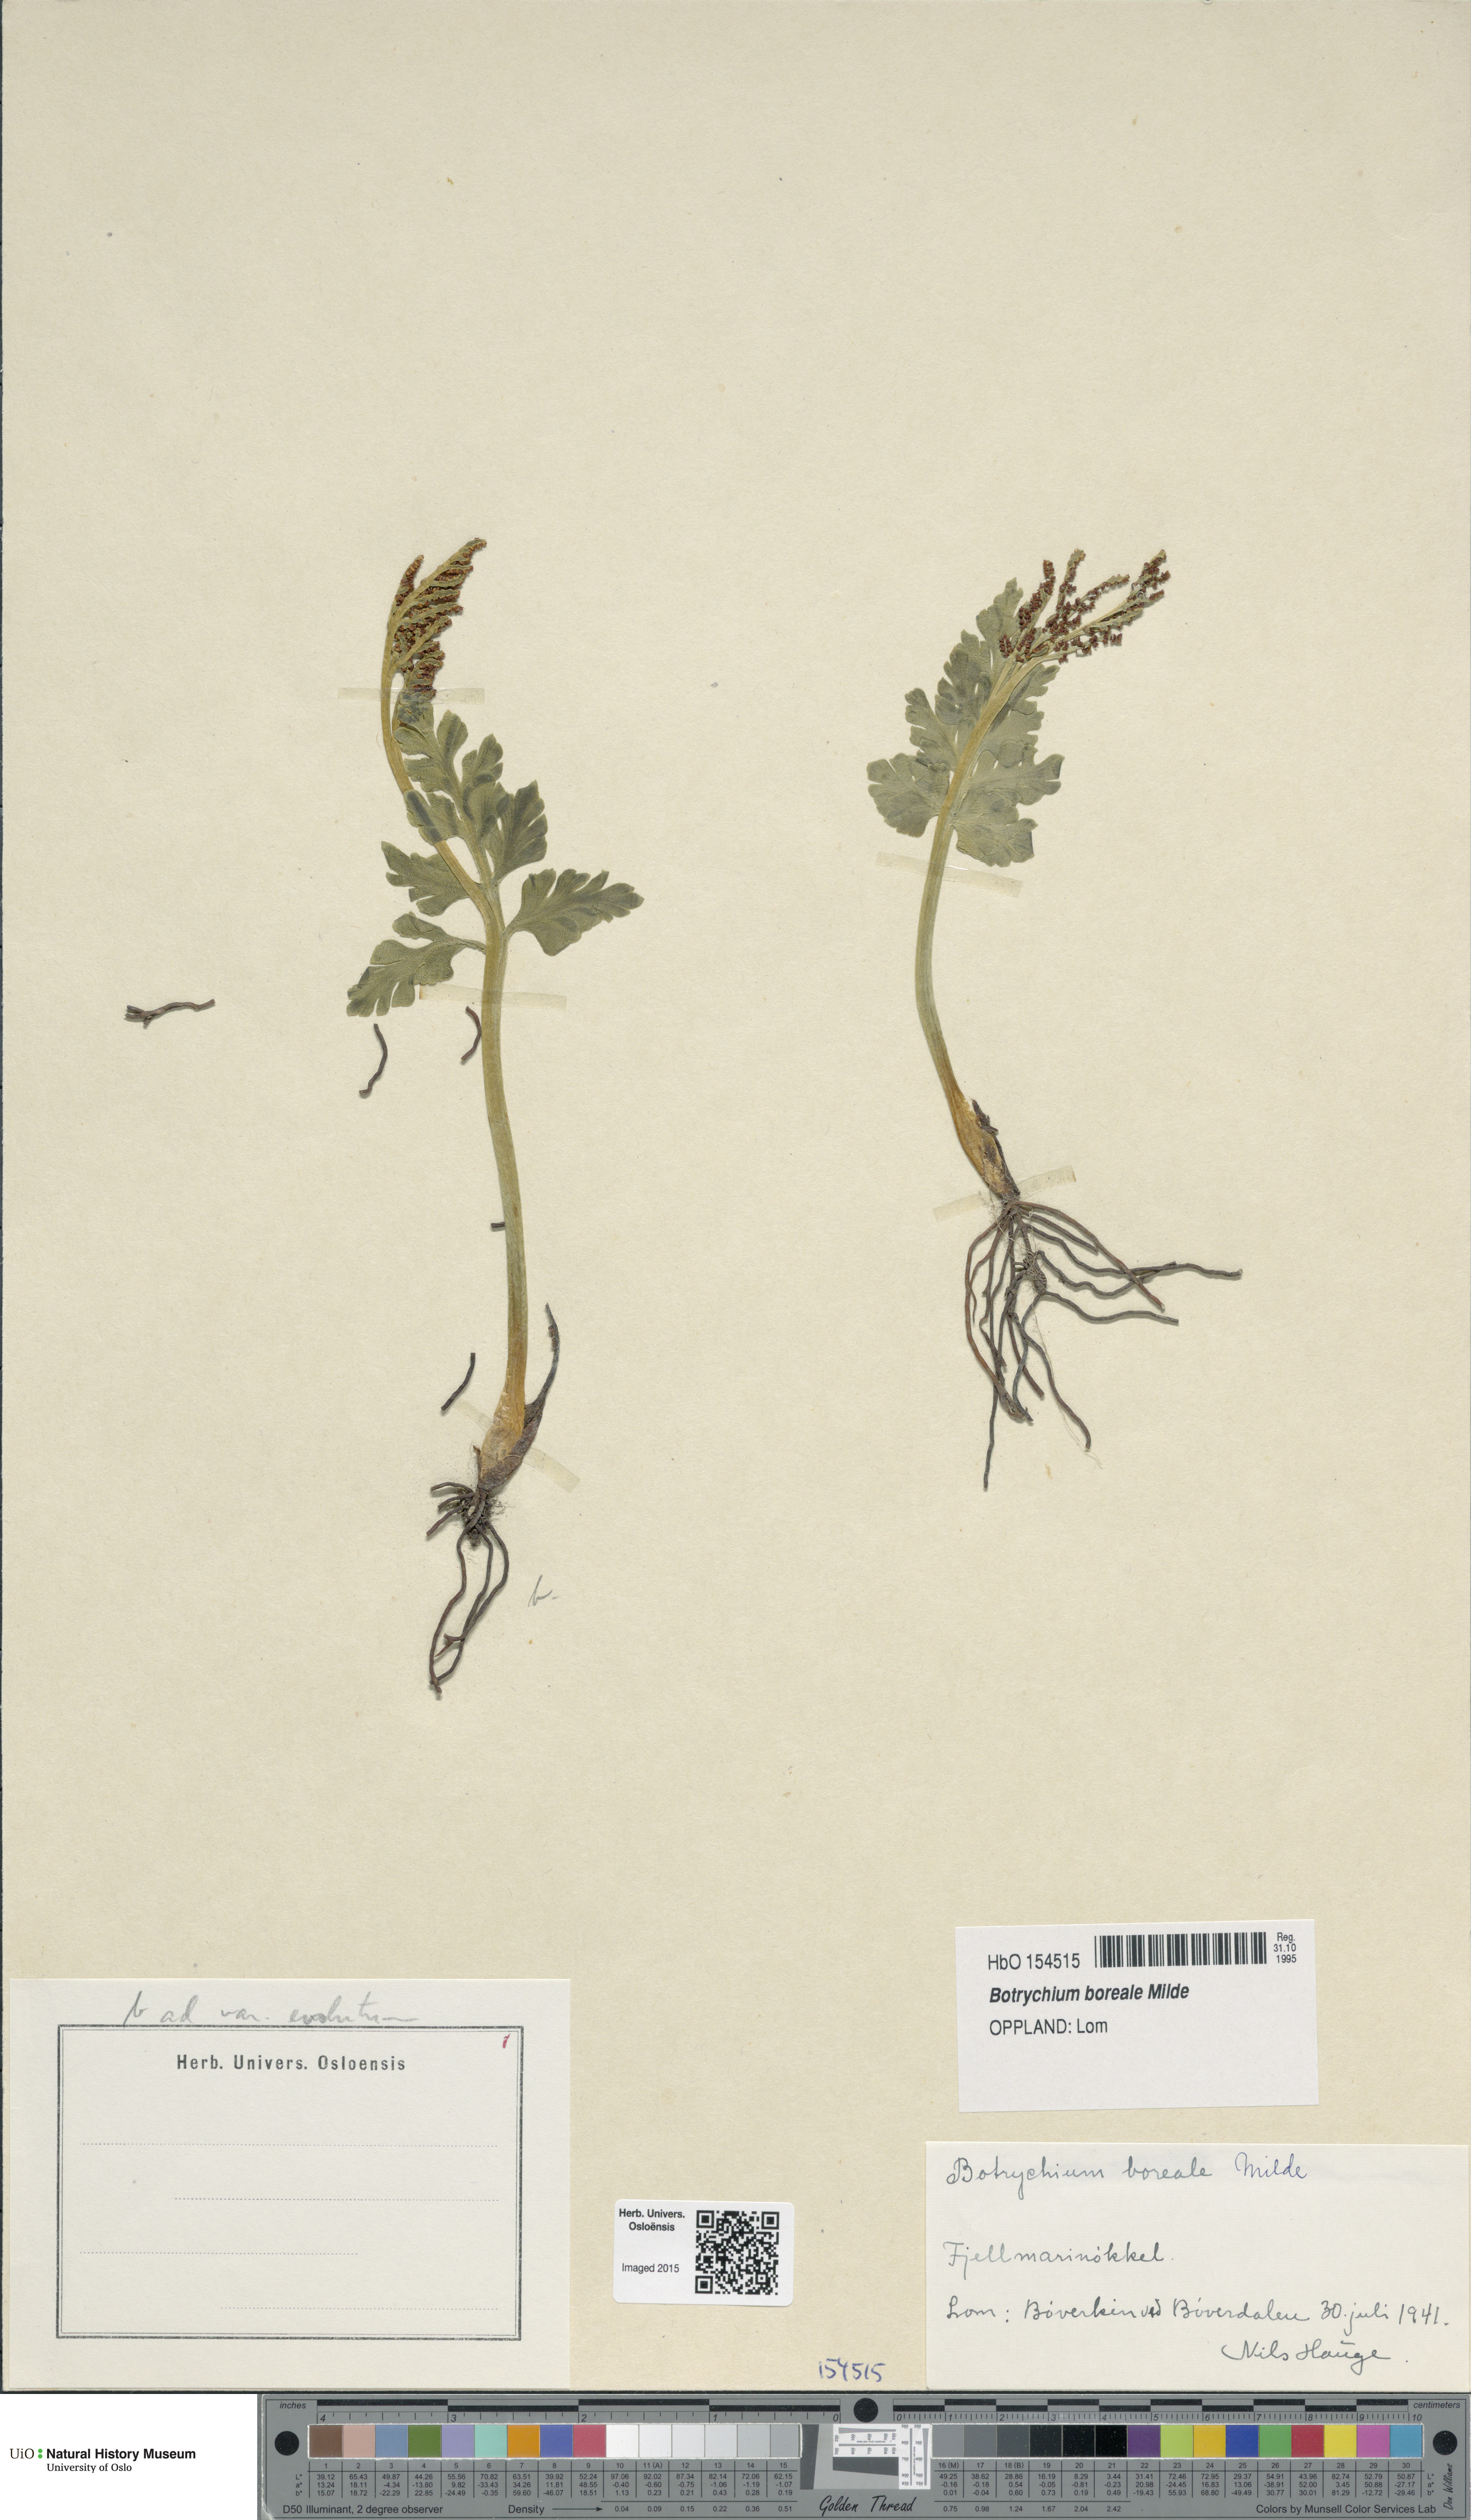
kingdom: Plantae
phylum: Tracheophyta
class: Polypodiopsida
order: Ophioglossales
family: Ophioglossaceae
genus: Botrychium
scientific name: Botrychium boreale
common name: Boreal moonwort
